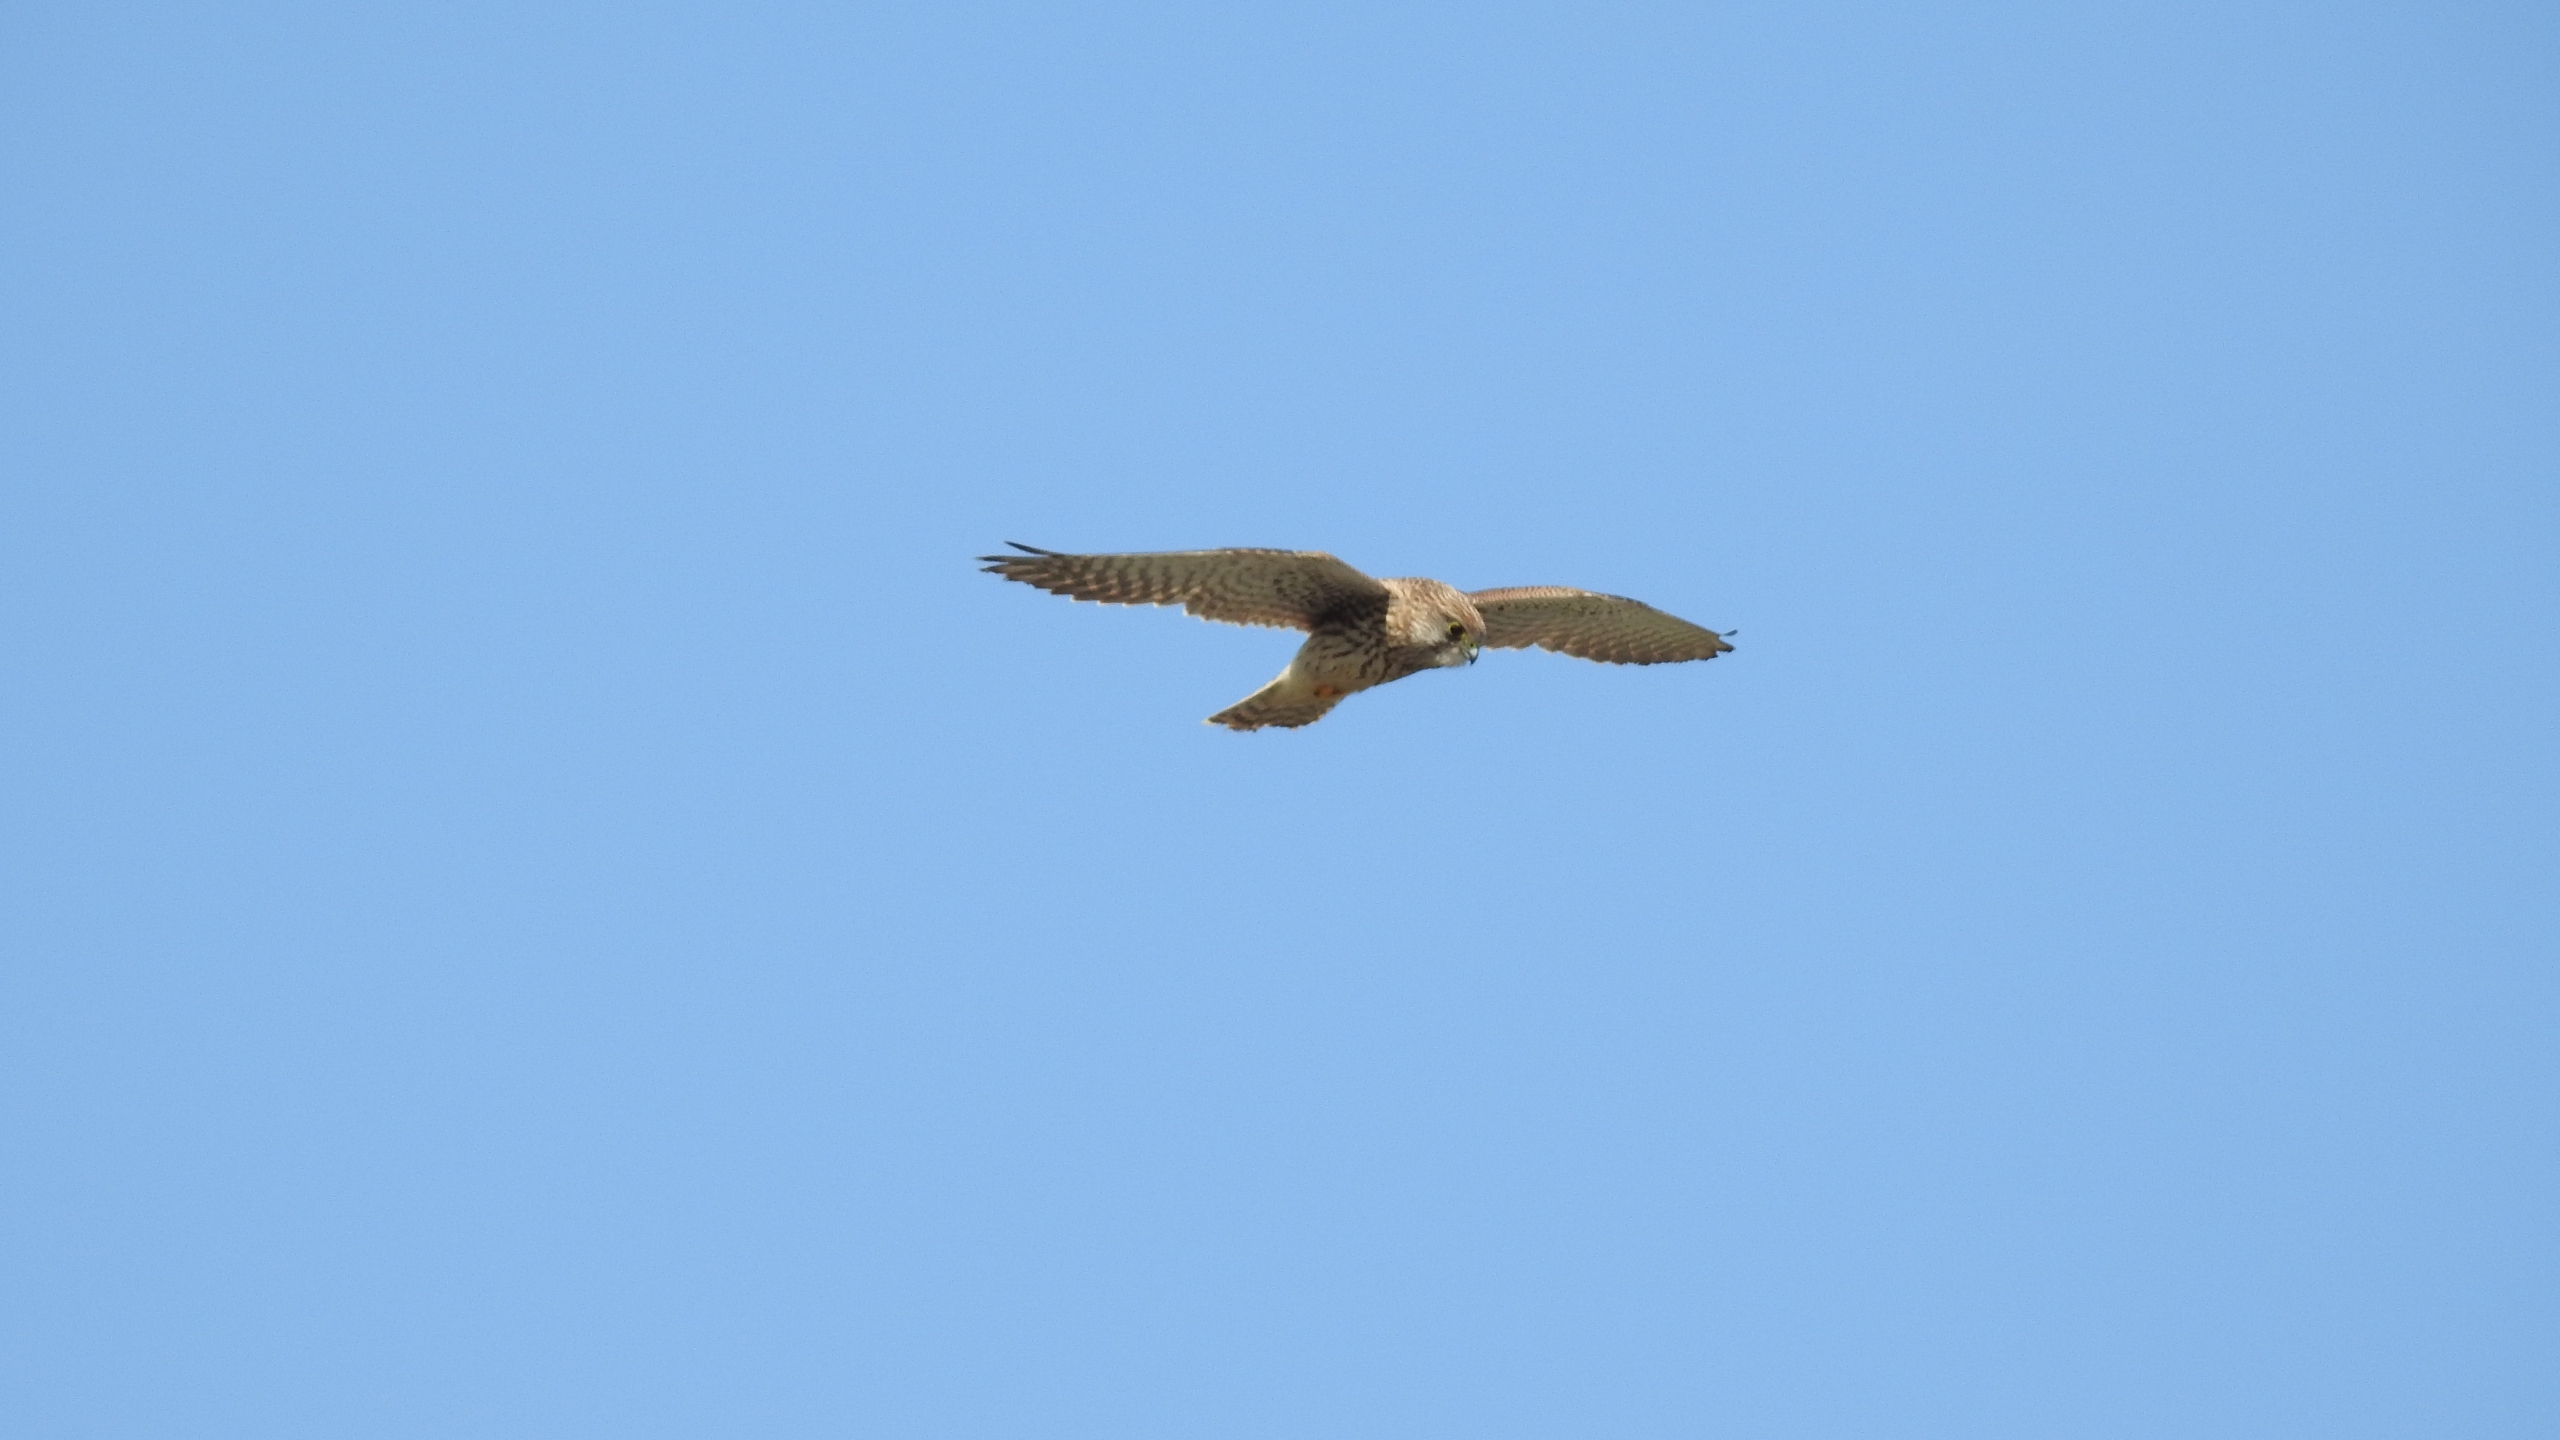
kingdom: Animalia
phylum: Chordata
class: Aves
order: Falconiformes
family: Falconidae
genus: Falco
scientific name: Falco tinnunculus
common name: Tårnfalk
